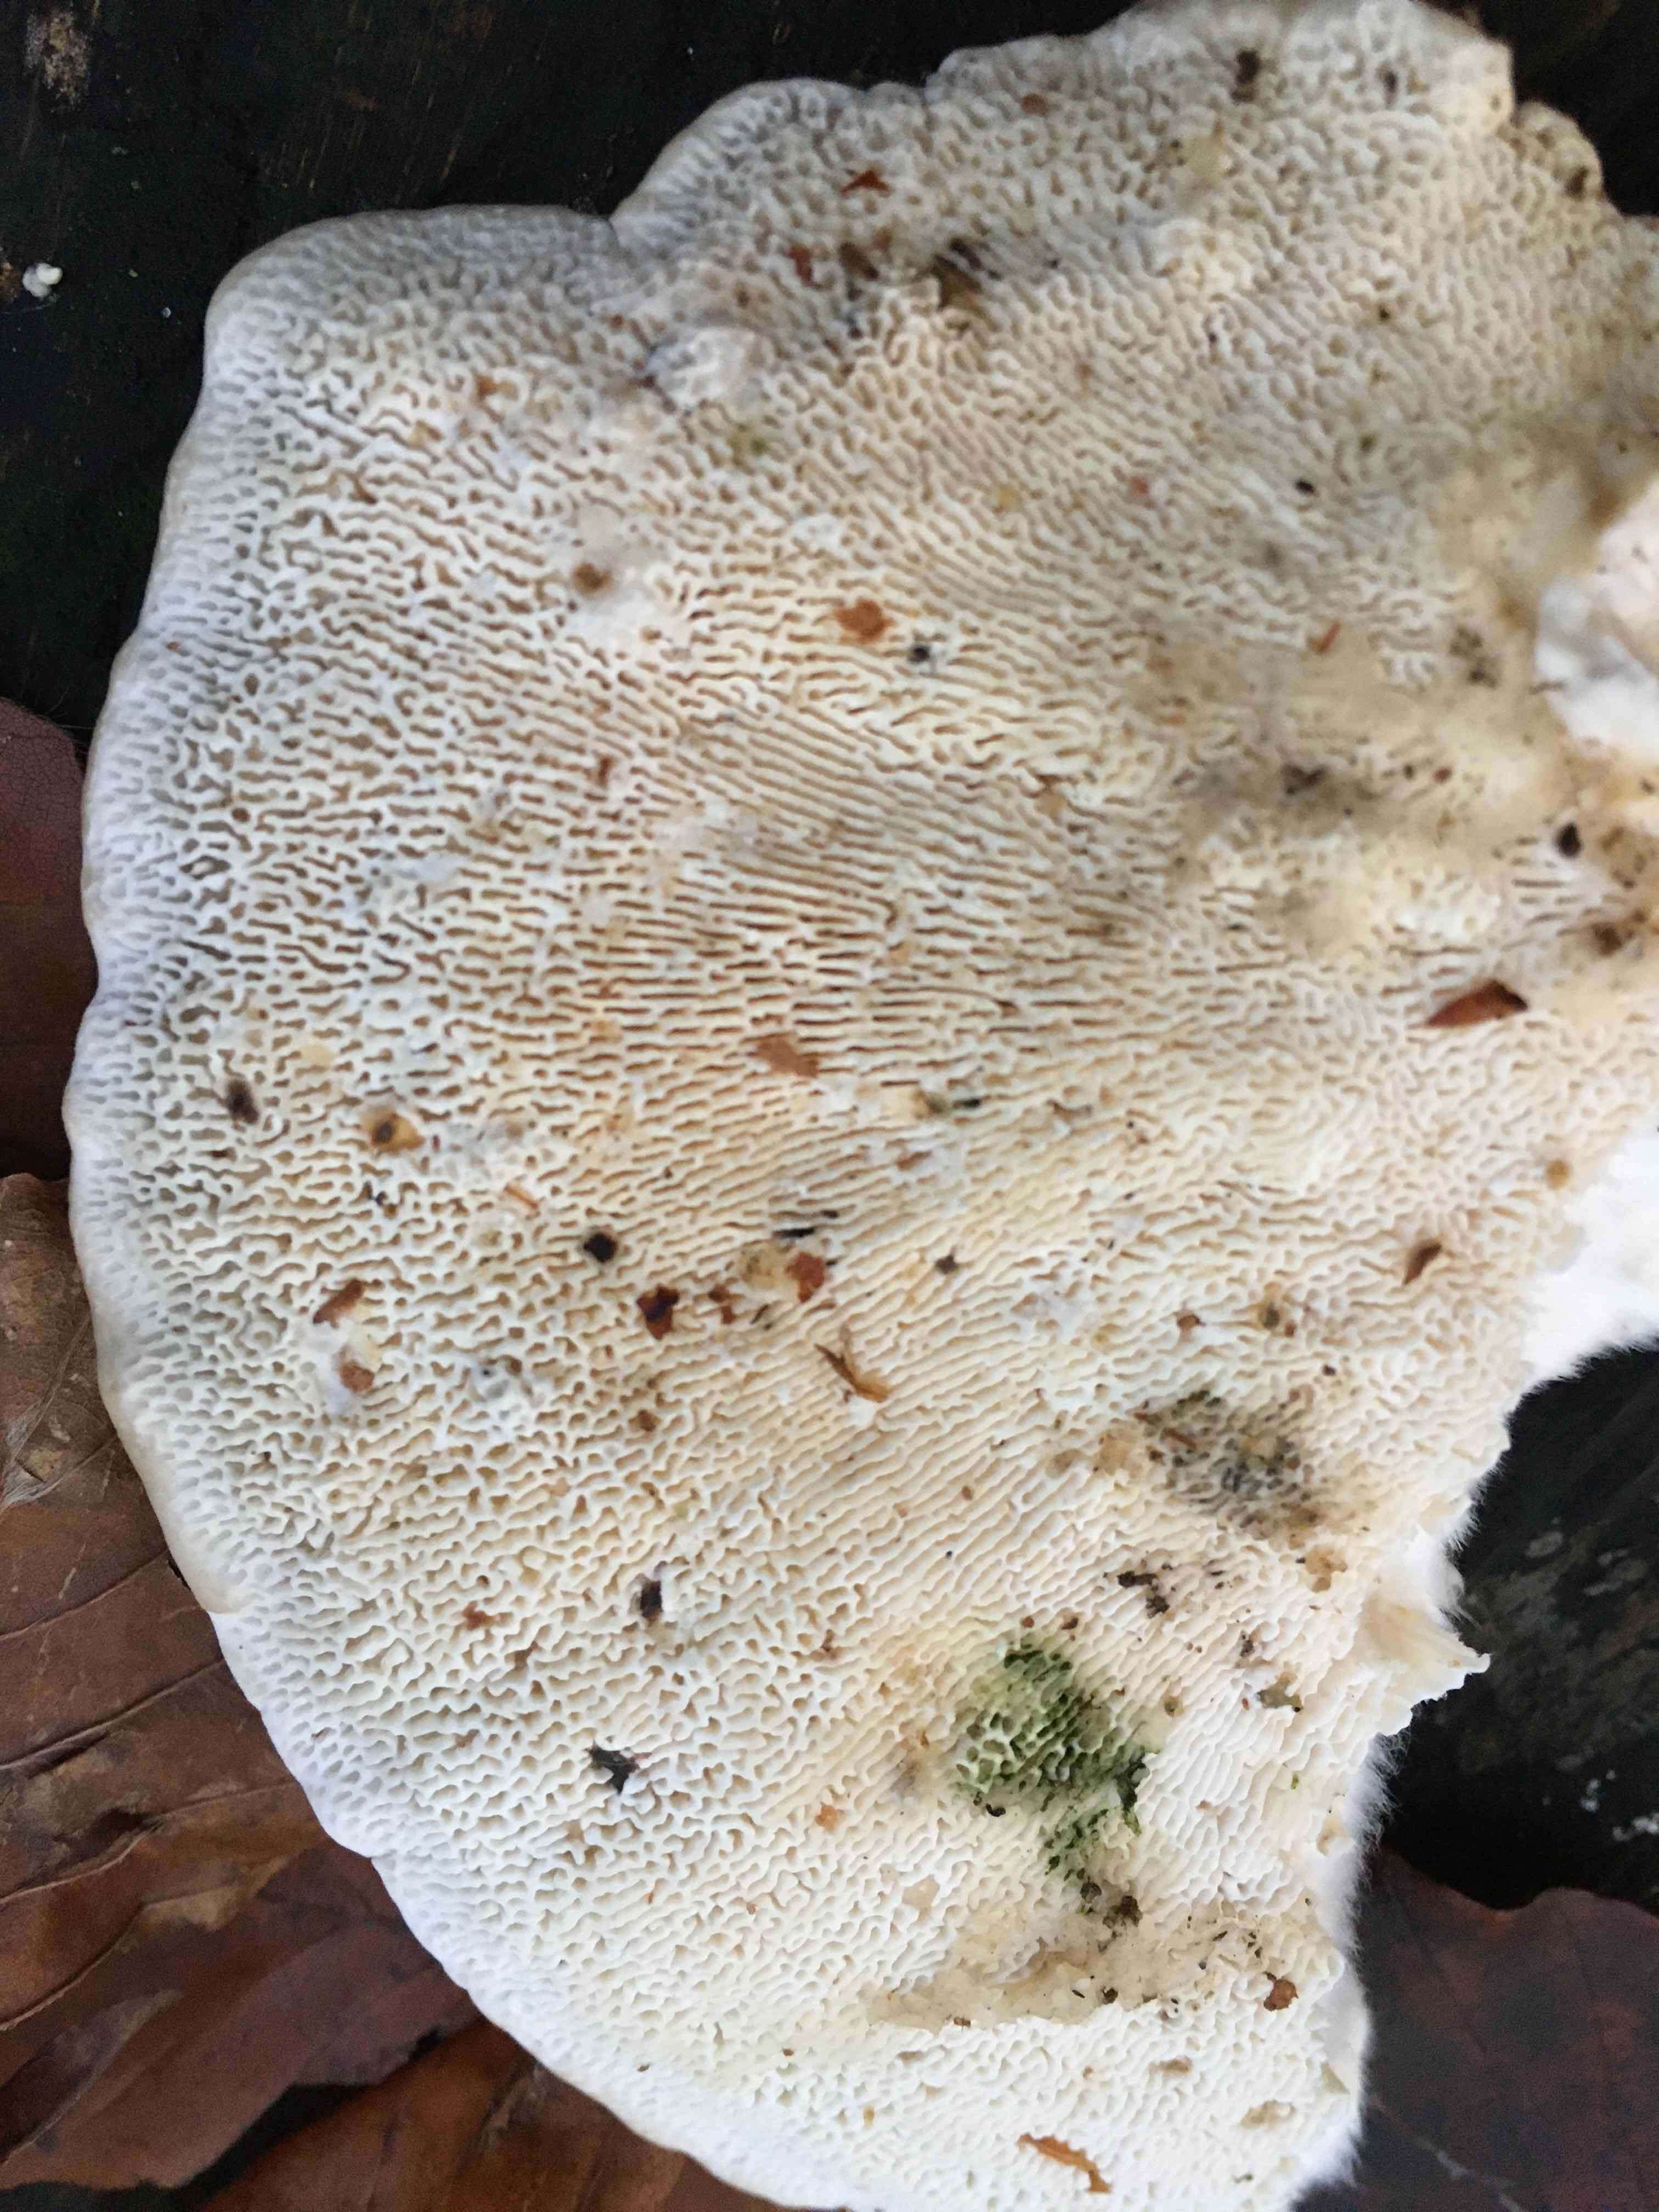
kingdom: Fungi
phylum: Basidiomycota
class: Agaricomycetes
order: Polyporales
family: Polyporaceae
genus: Trametes
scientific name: Trametes gibbosa
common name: puklet læderporesvamp
